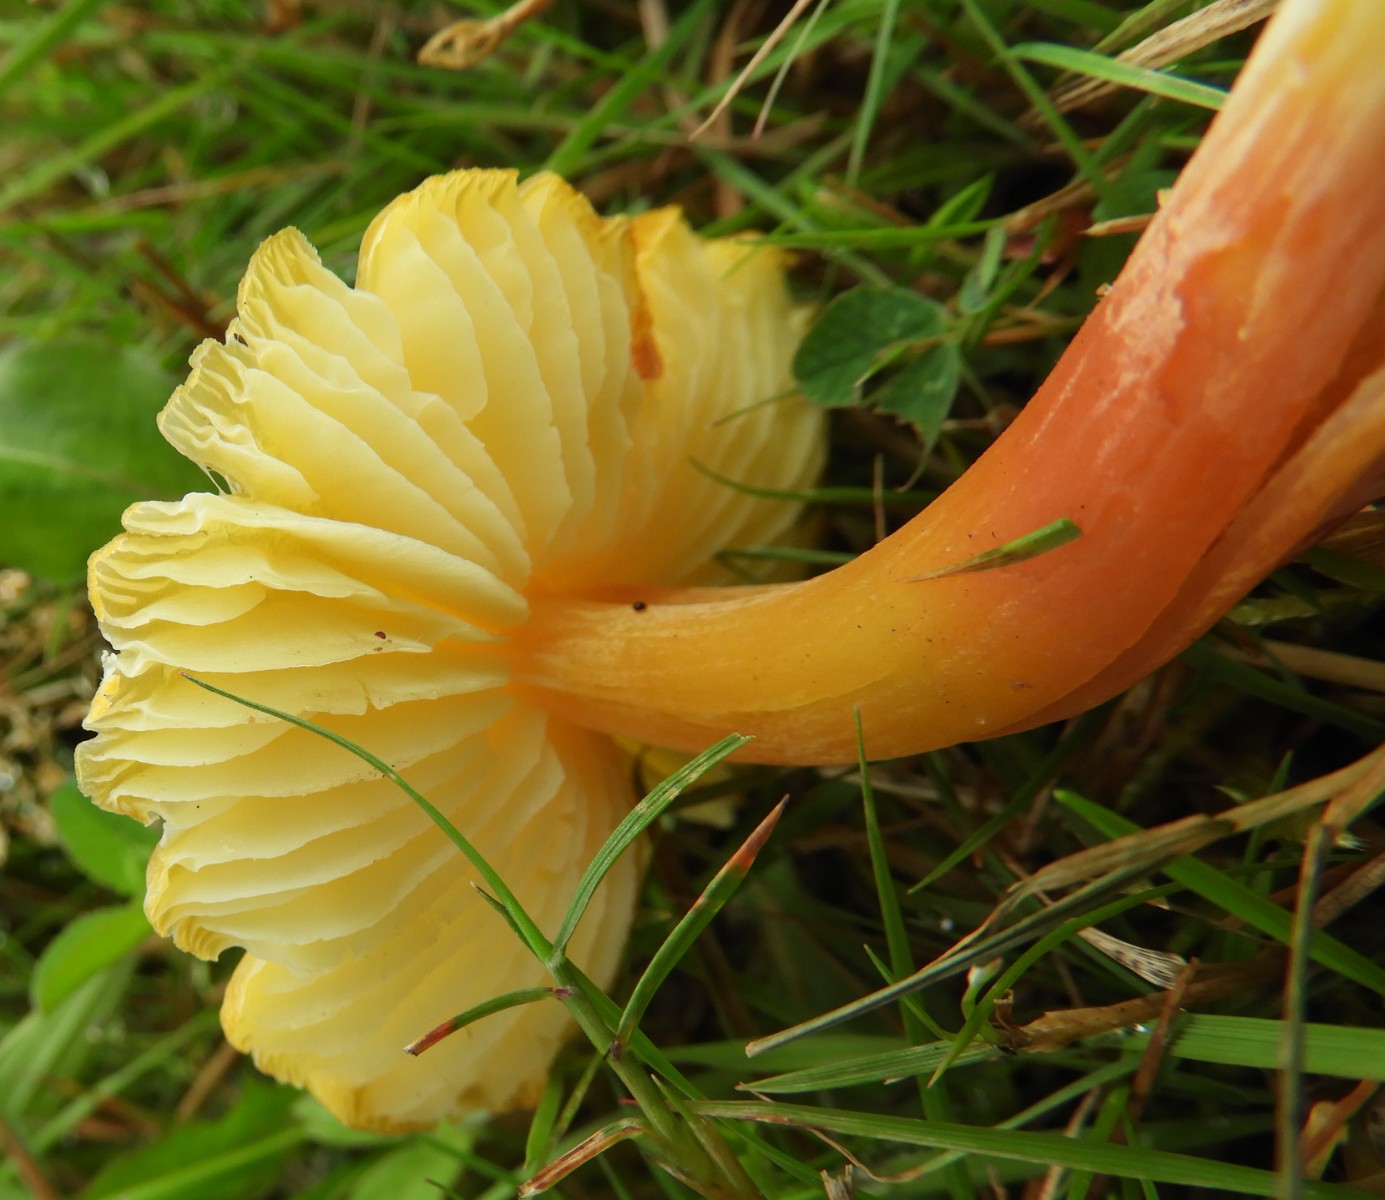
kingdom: Fungi
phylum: Basidiomycota
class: Agaricomycetes
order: Agaricales
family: Hygrophoraceae
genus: Hygrocybe
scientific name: Hygrocybe
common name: vokshat
